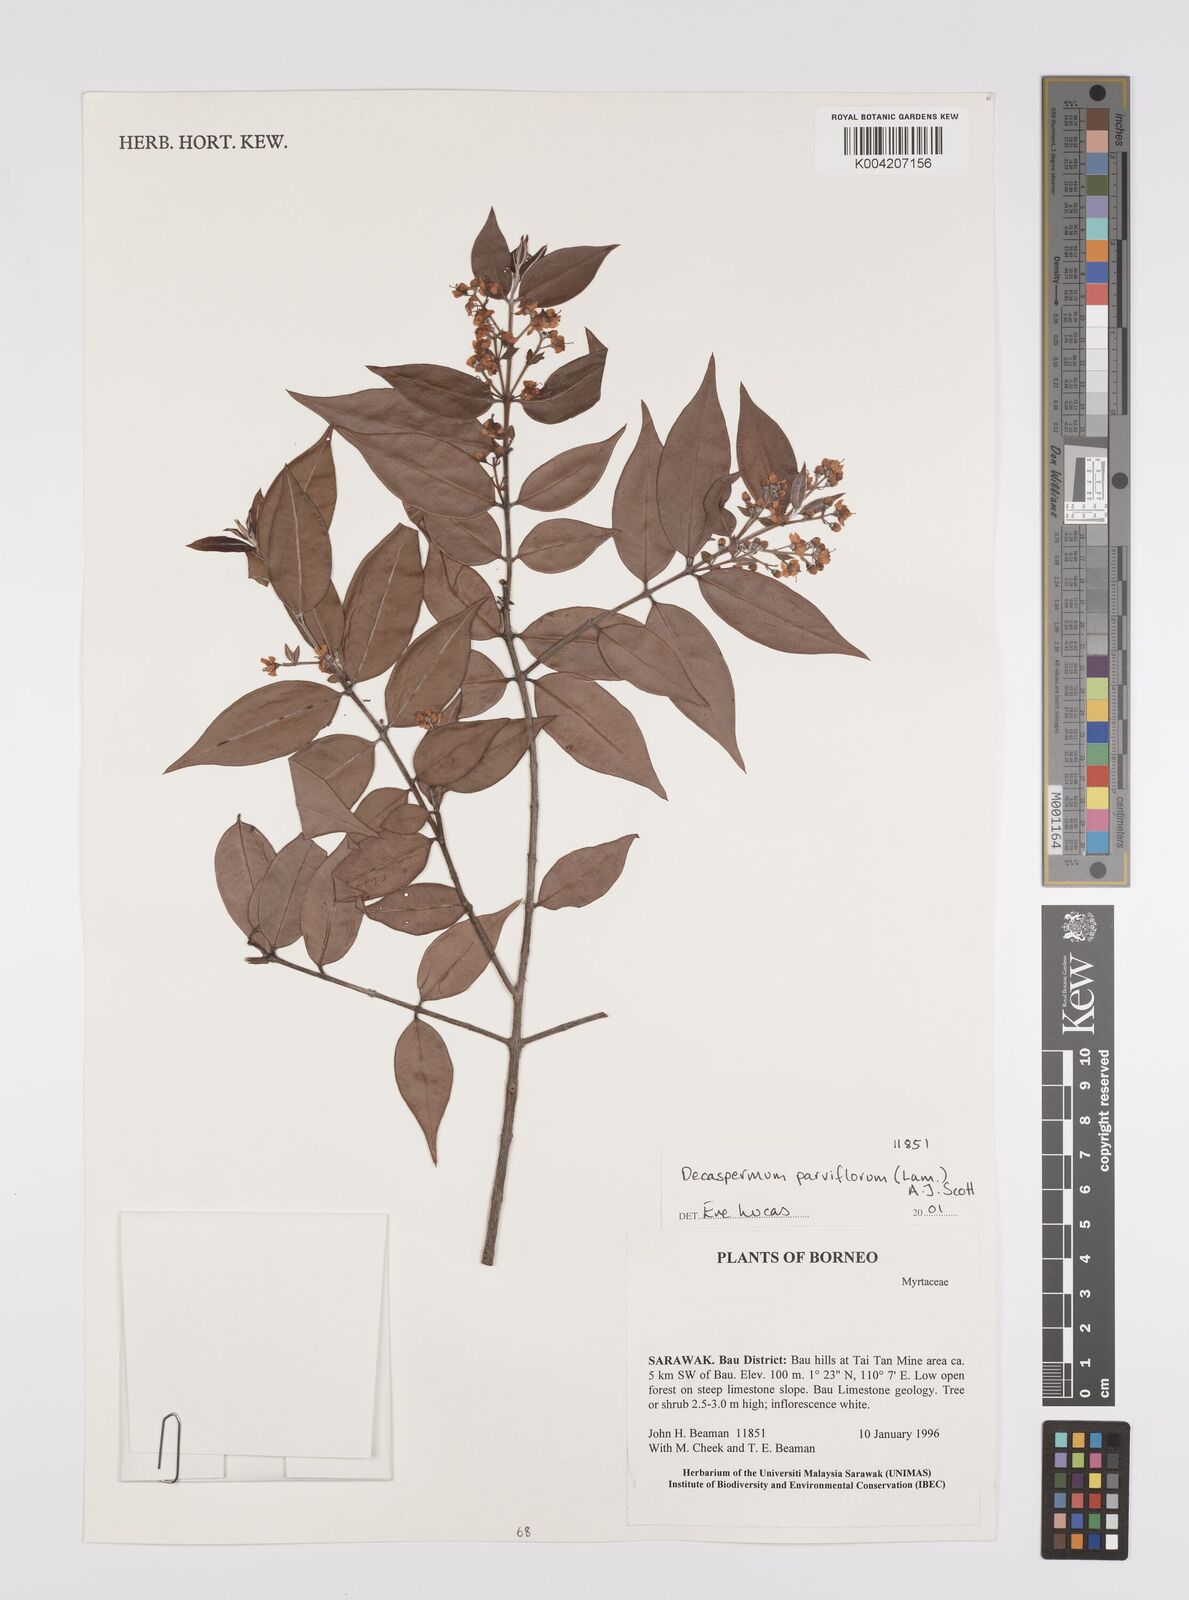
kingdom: Plantae
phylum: Tracheophyta
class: Magnoliopsida
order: Myrtales
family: Myrtaceae
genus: Decaspermum
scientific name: Decaspermum parviflorum
